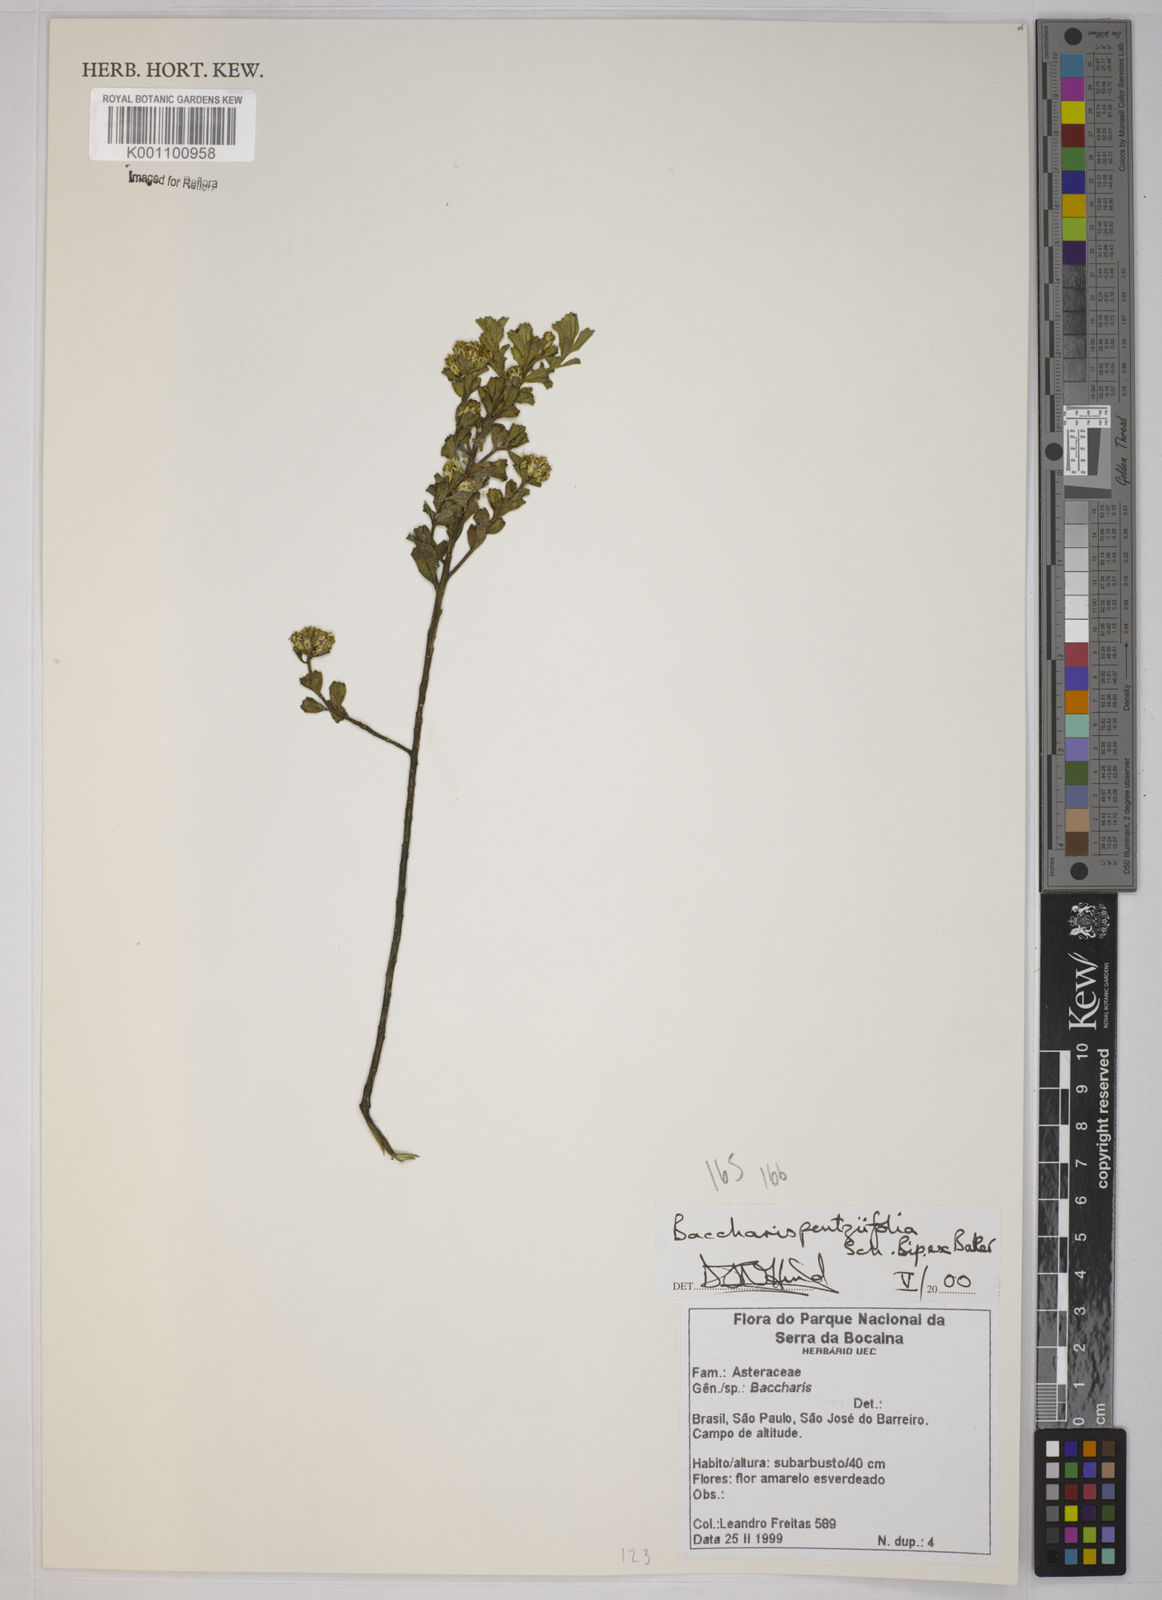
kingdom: Plantae
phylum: Tracheophyta
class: Magnoliopsida
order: Asterales
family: Asteraceae
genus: Baccharis
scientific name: Baccharis pentziifolia
